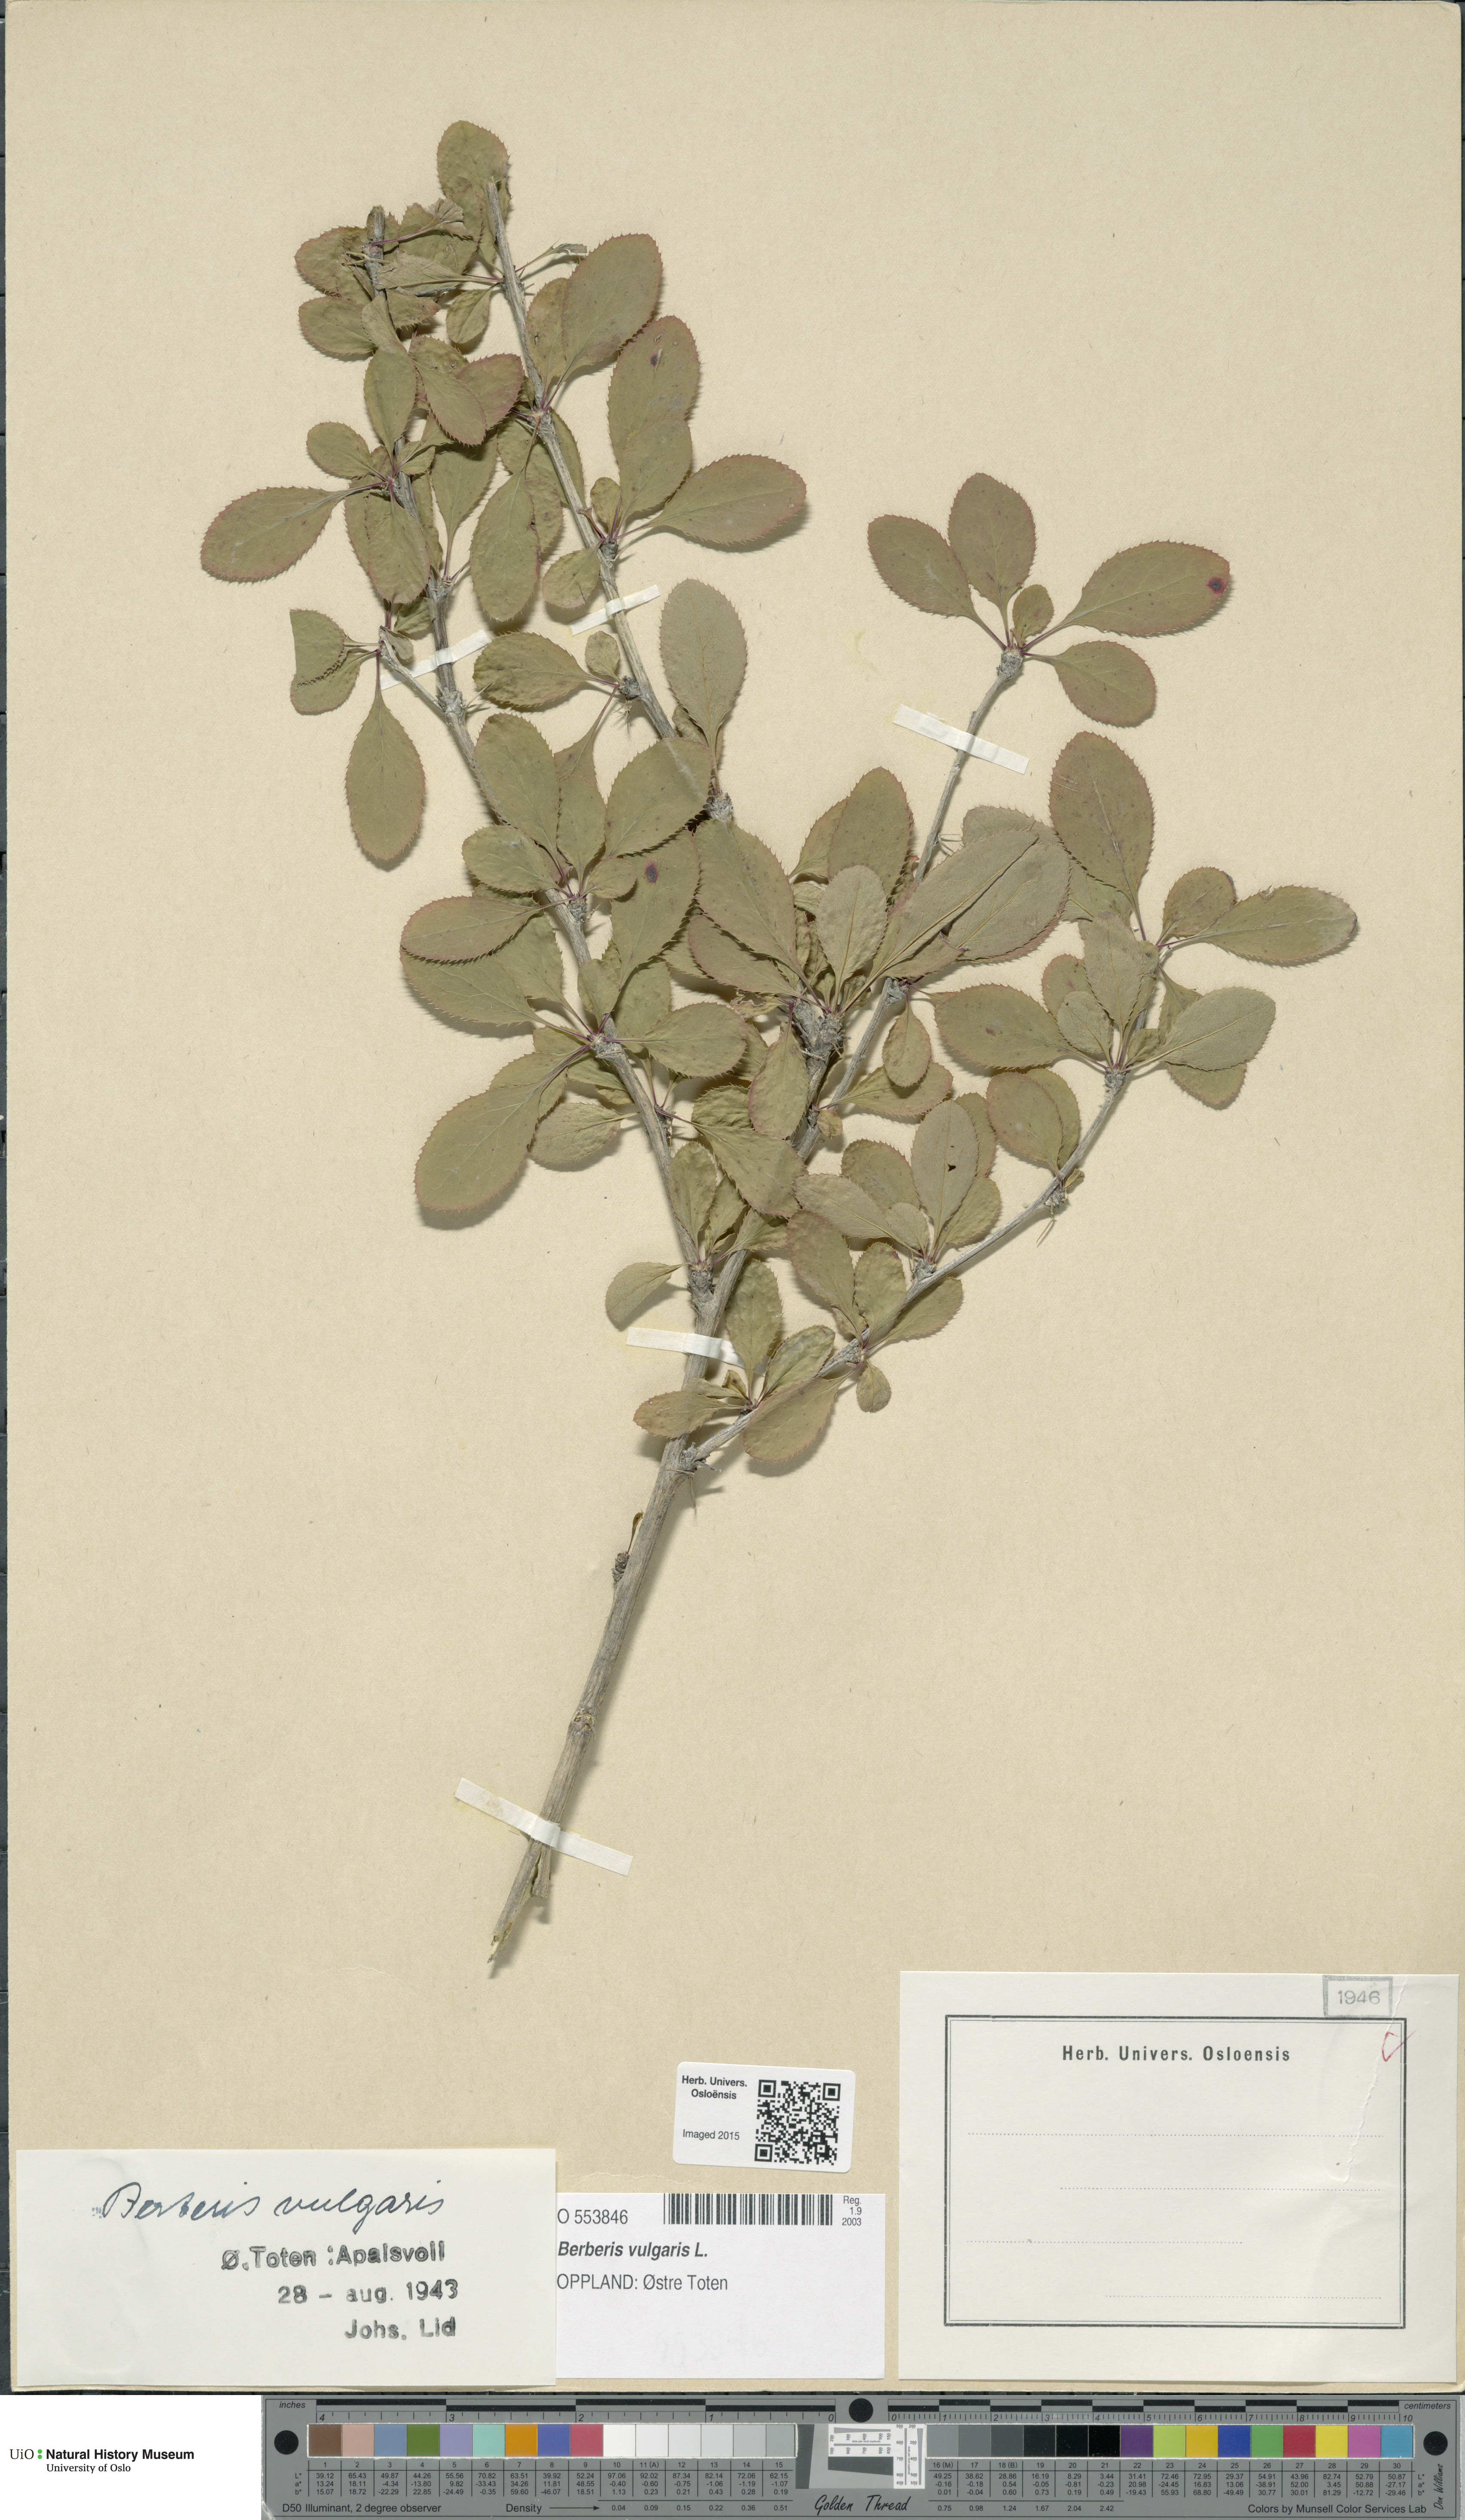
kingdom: Plantae
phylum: Tracheophyta
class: Magnoliopsida
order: Ranunculales
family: Berberidaceae
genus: Berberis
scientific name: Berberis vulgaris
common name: Barberry
